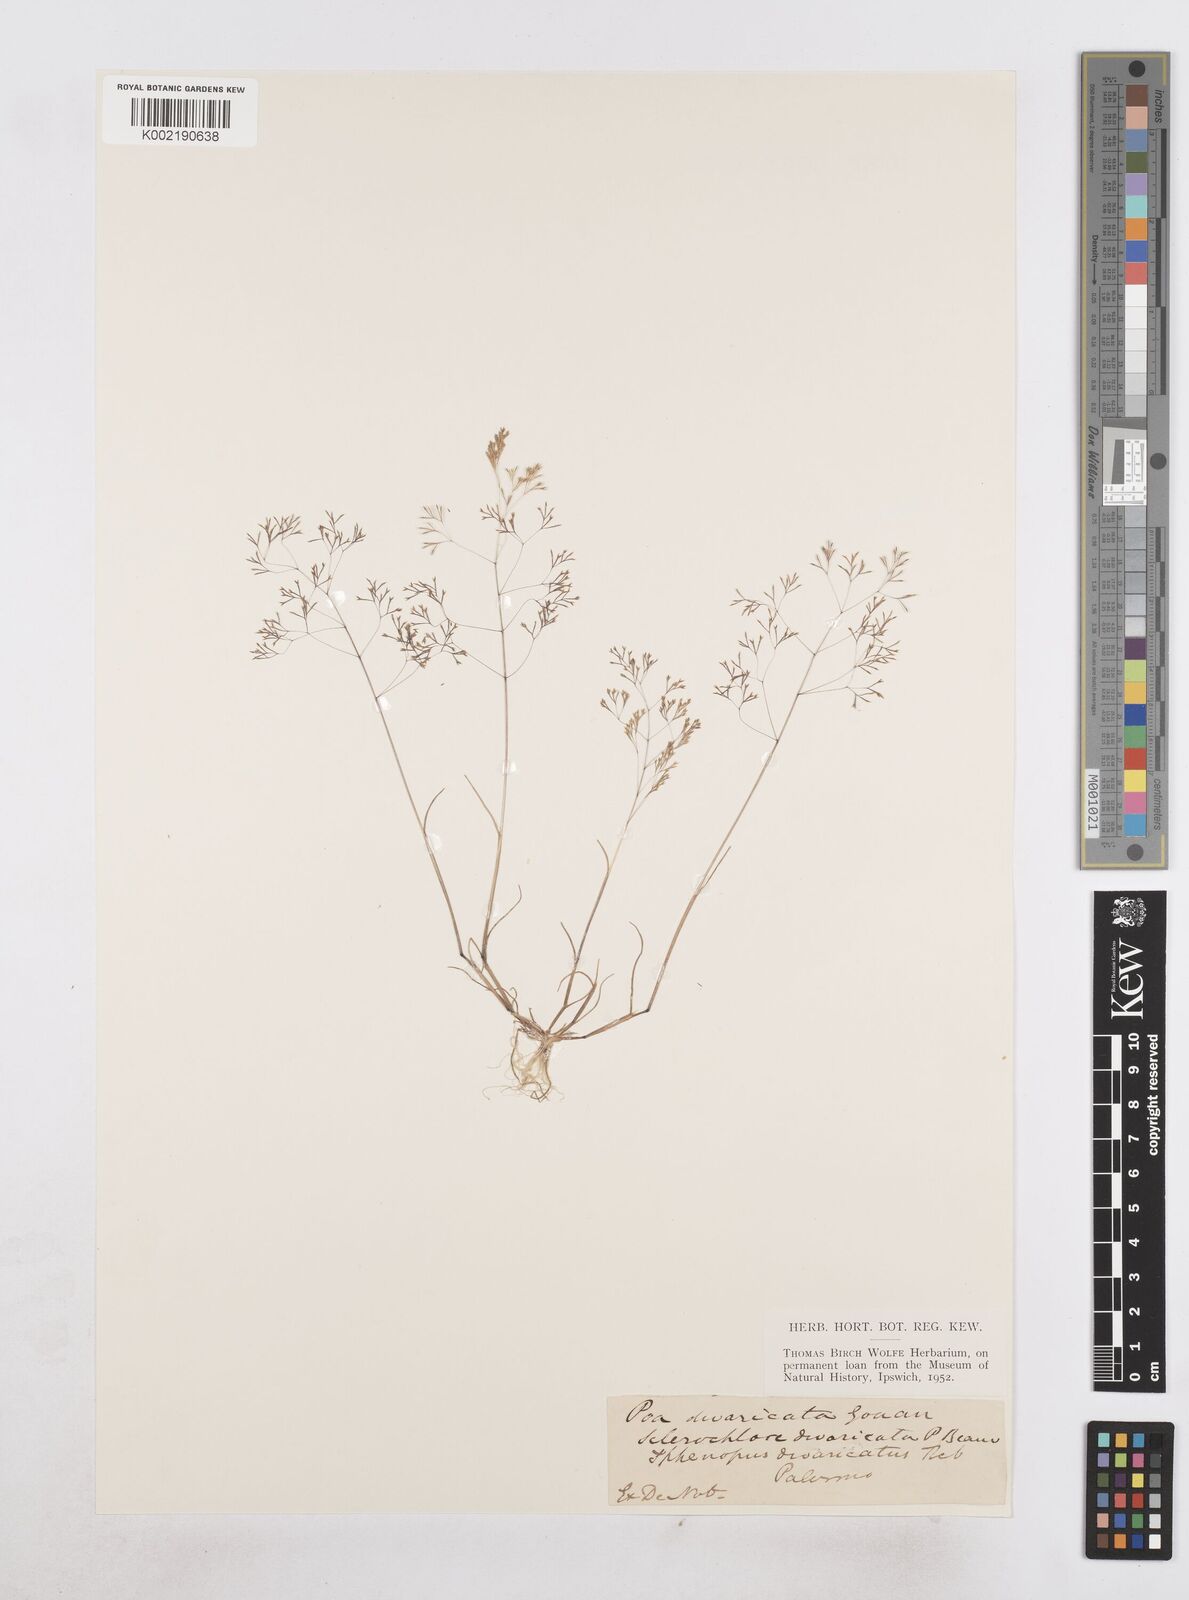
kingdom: Plantae
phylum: Tracheophyta
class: Liliopsida
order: Poales
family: Poaceae
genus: Sphenopus
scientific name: Sphenopus divaricatus
